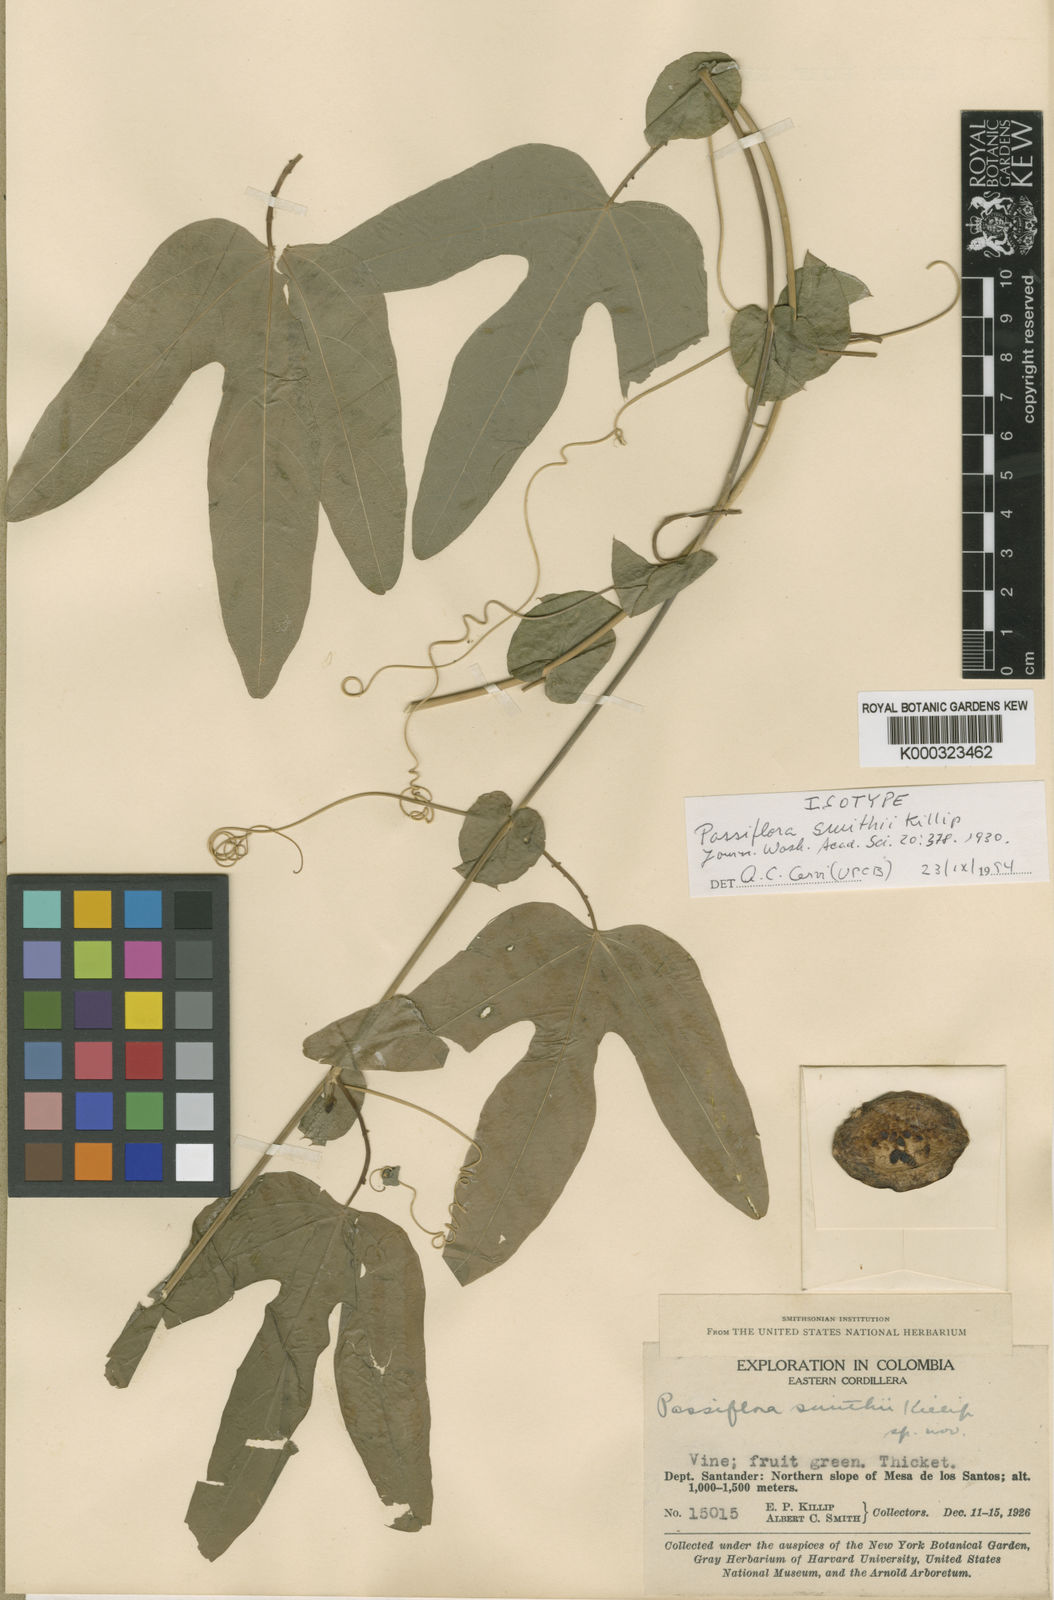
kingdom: Plantae
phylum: Tracheophyta
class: Magnoliopsida
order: Malpighiales
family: Passifloraceae
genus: Passiflora
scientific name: Passiflora smithii
